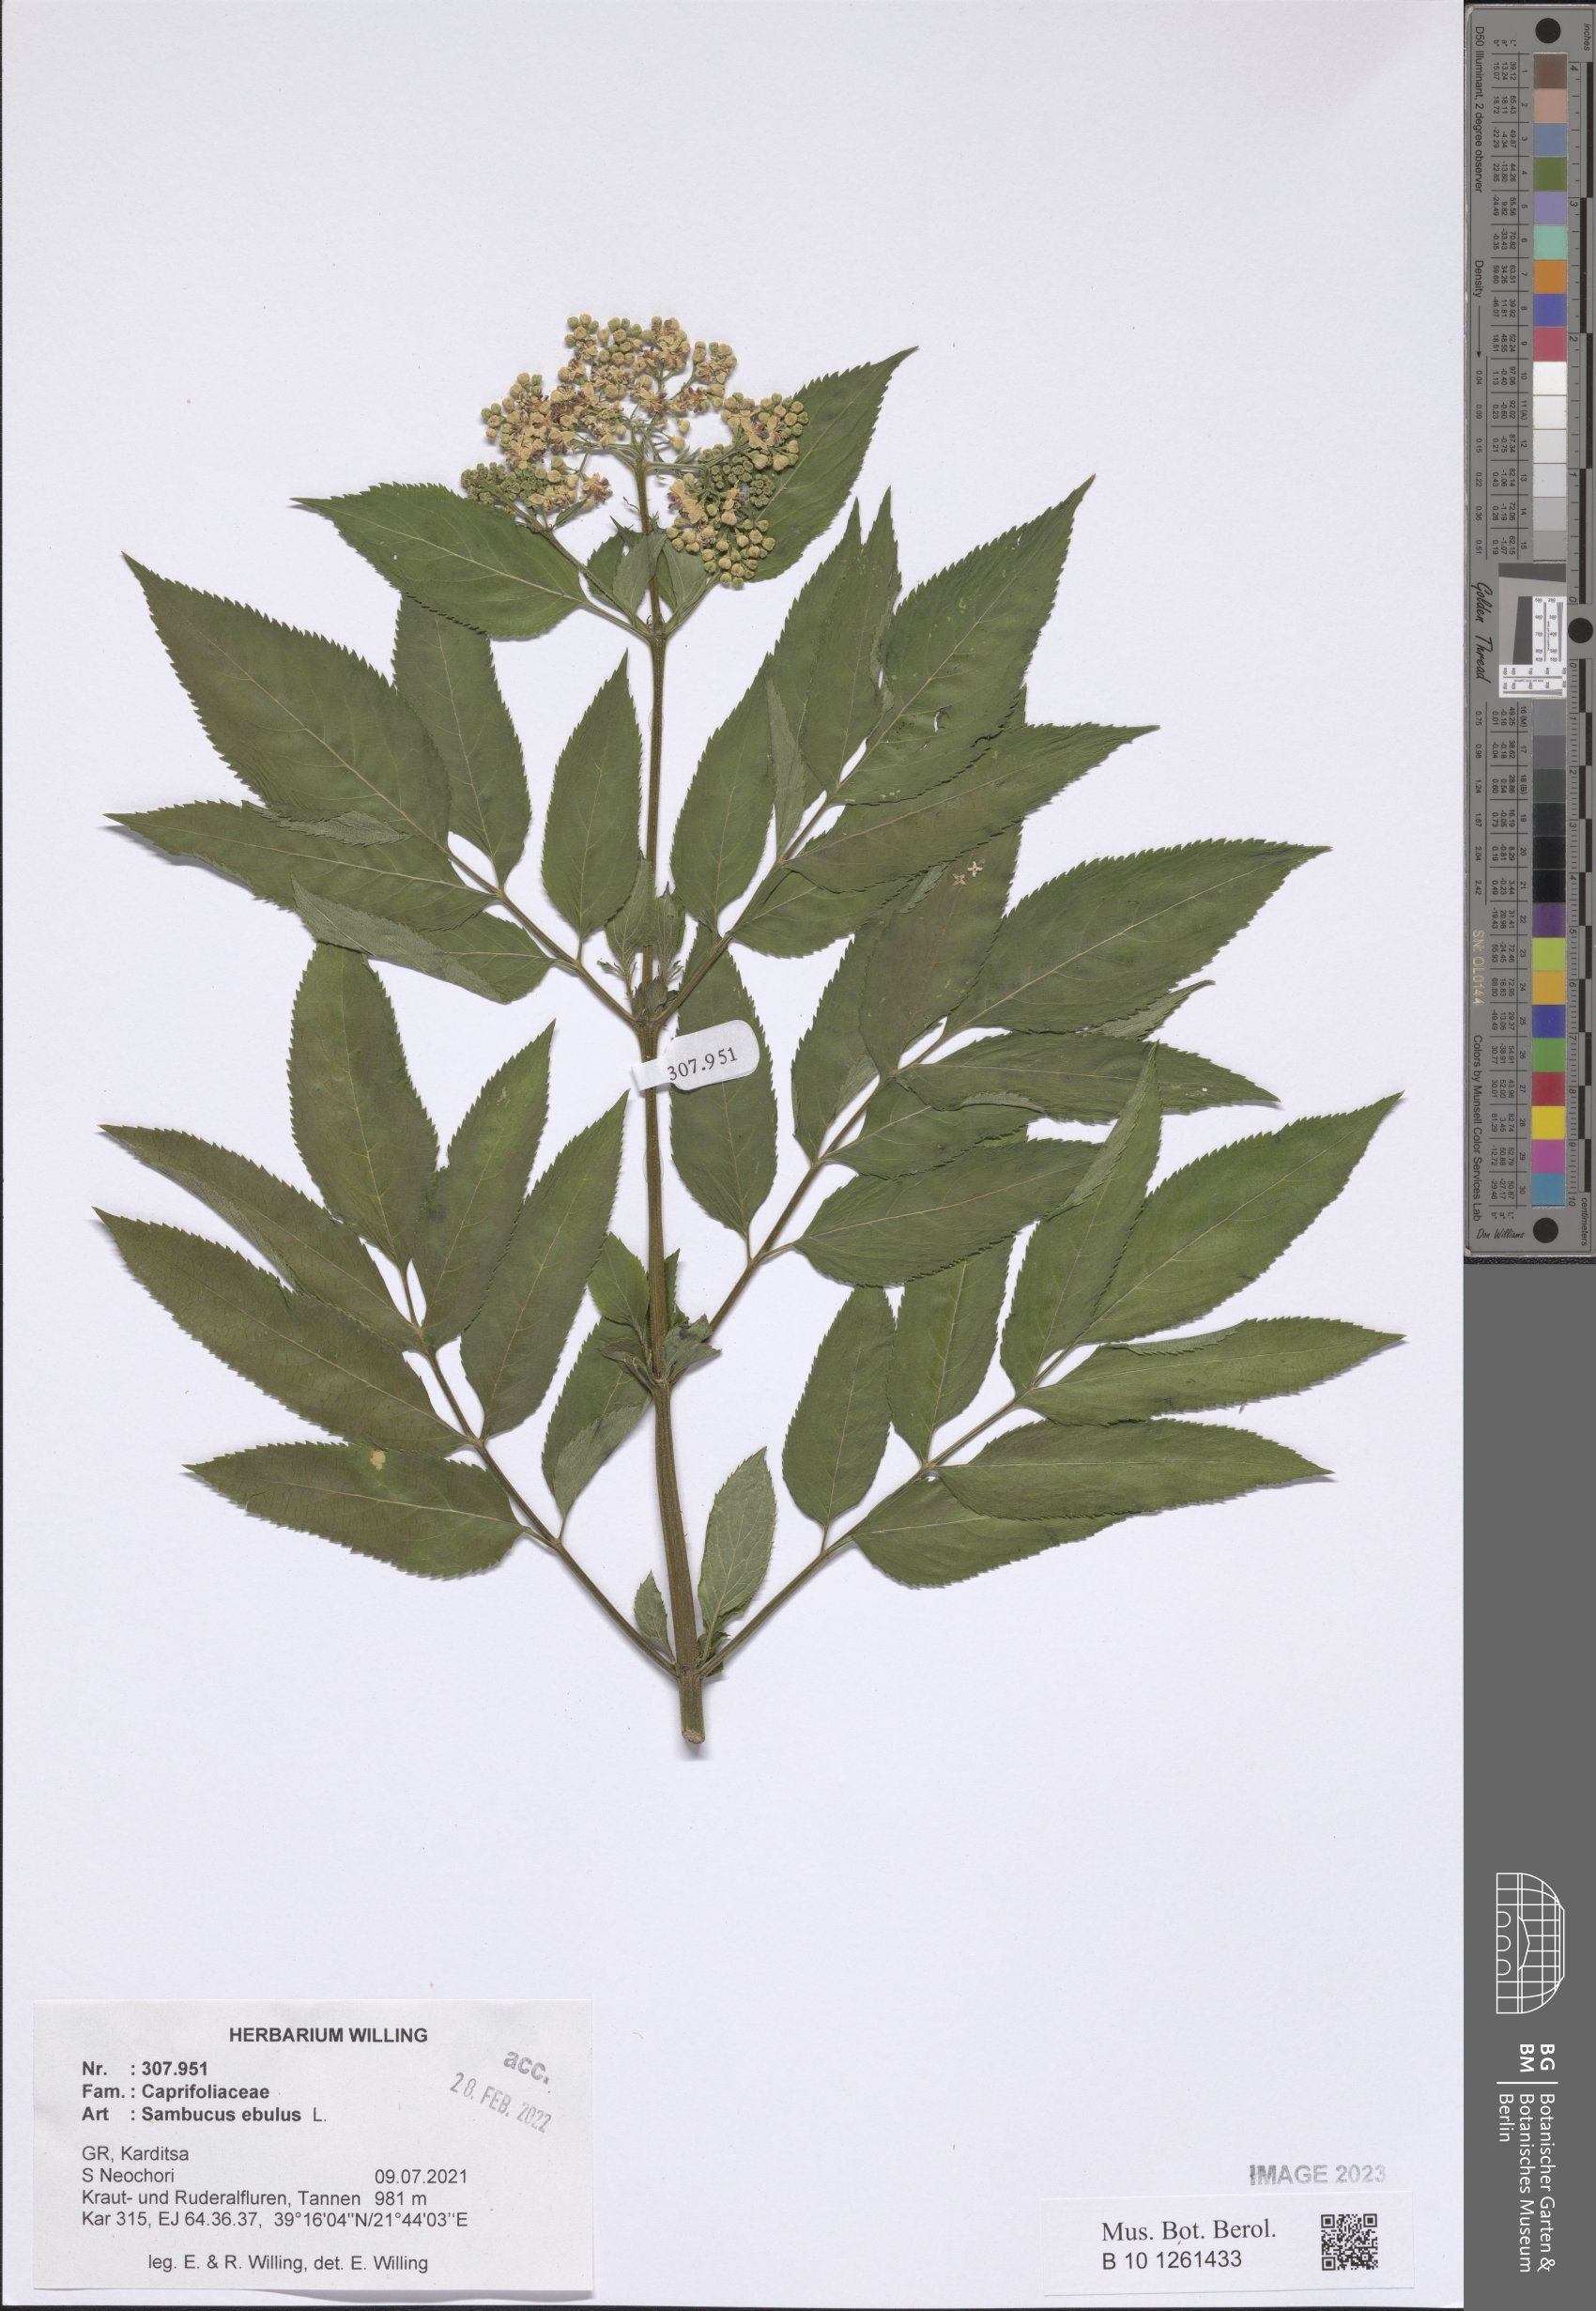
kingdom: Plantae
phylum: Tracheophyta
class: Magnoliopsida
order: Dipsacales
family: Viburnaceae
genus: Sambucus
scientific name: Sambucus ebulus
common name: Dwarf elder
